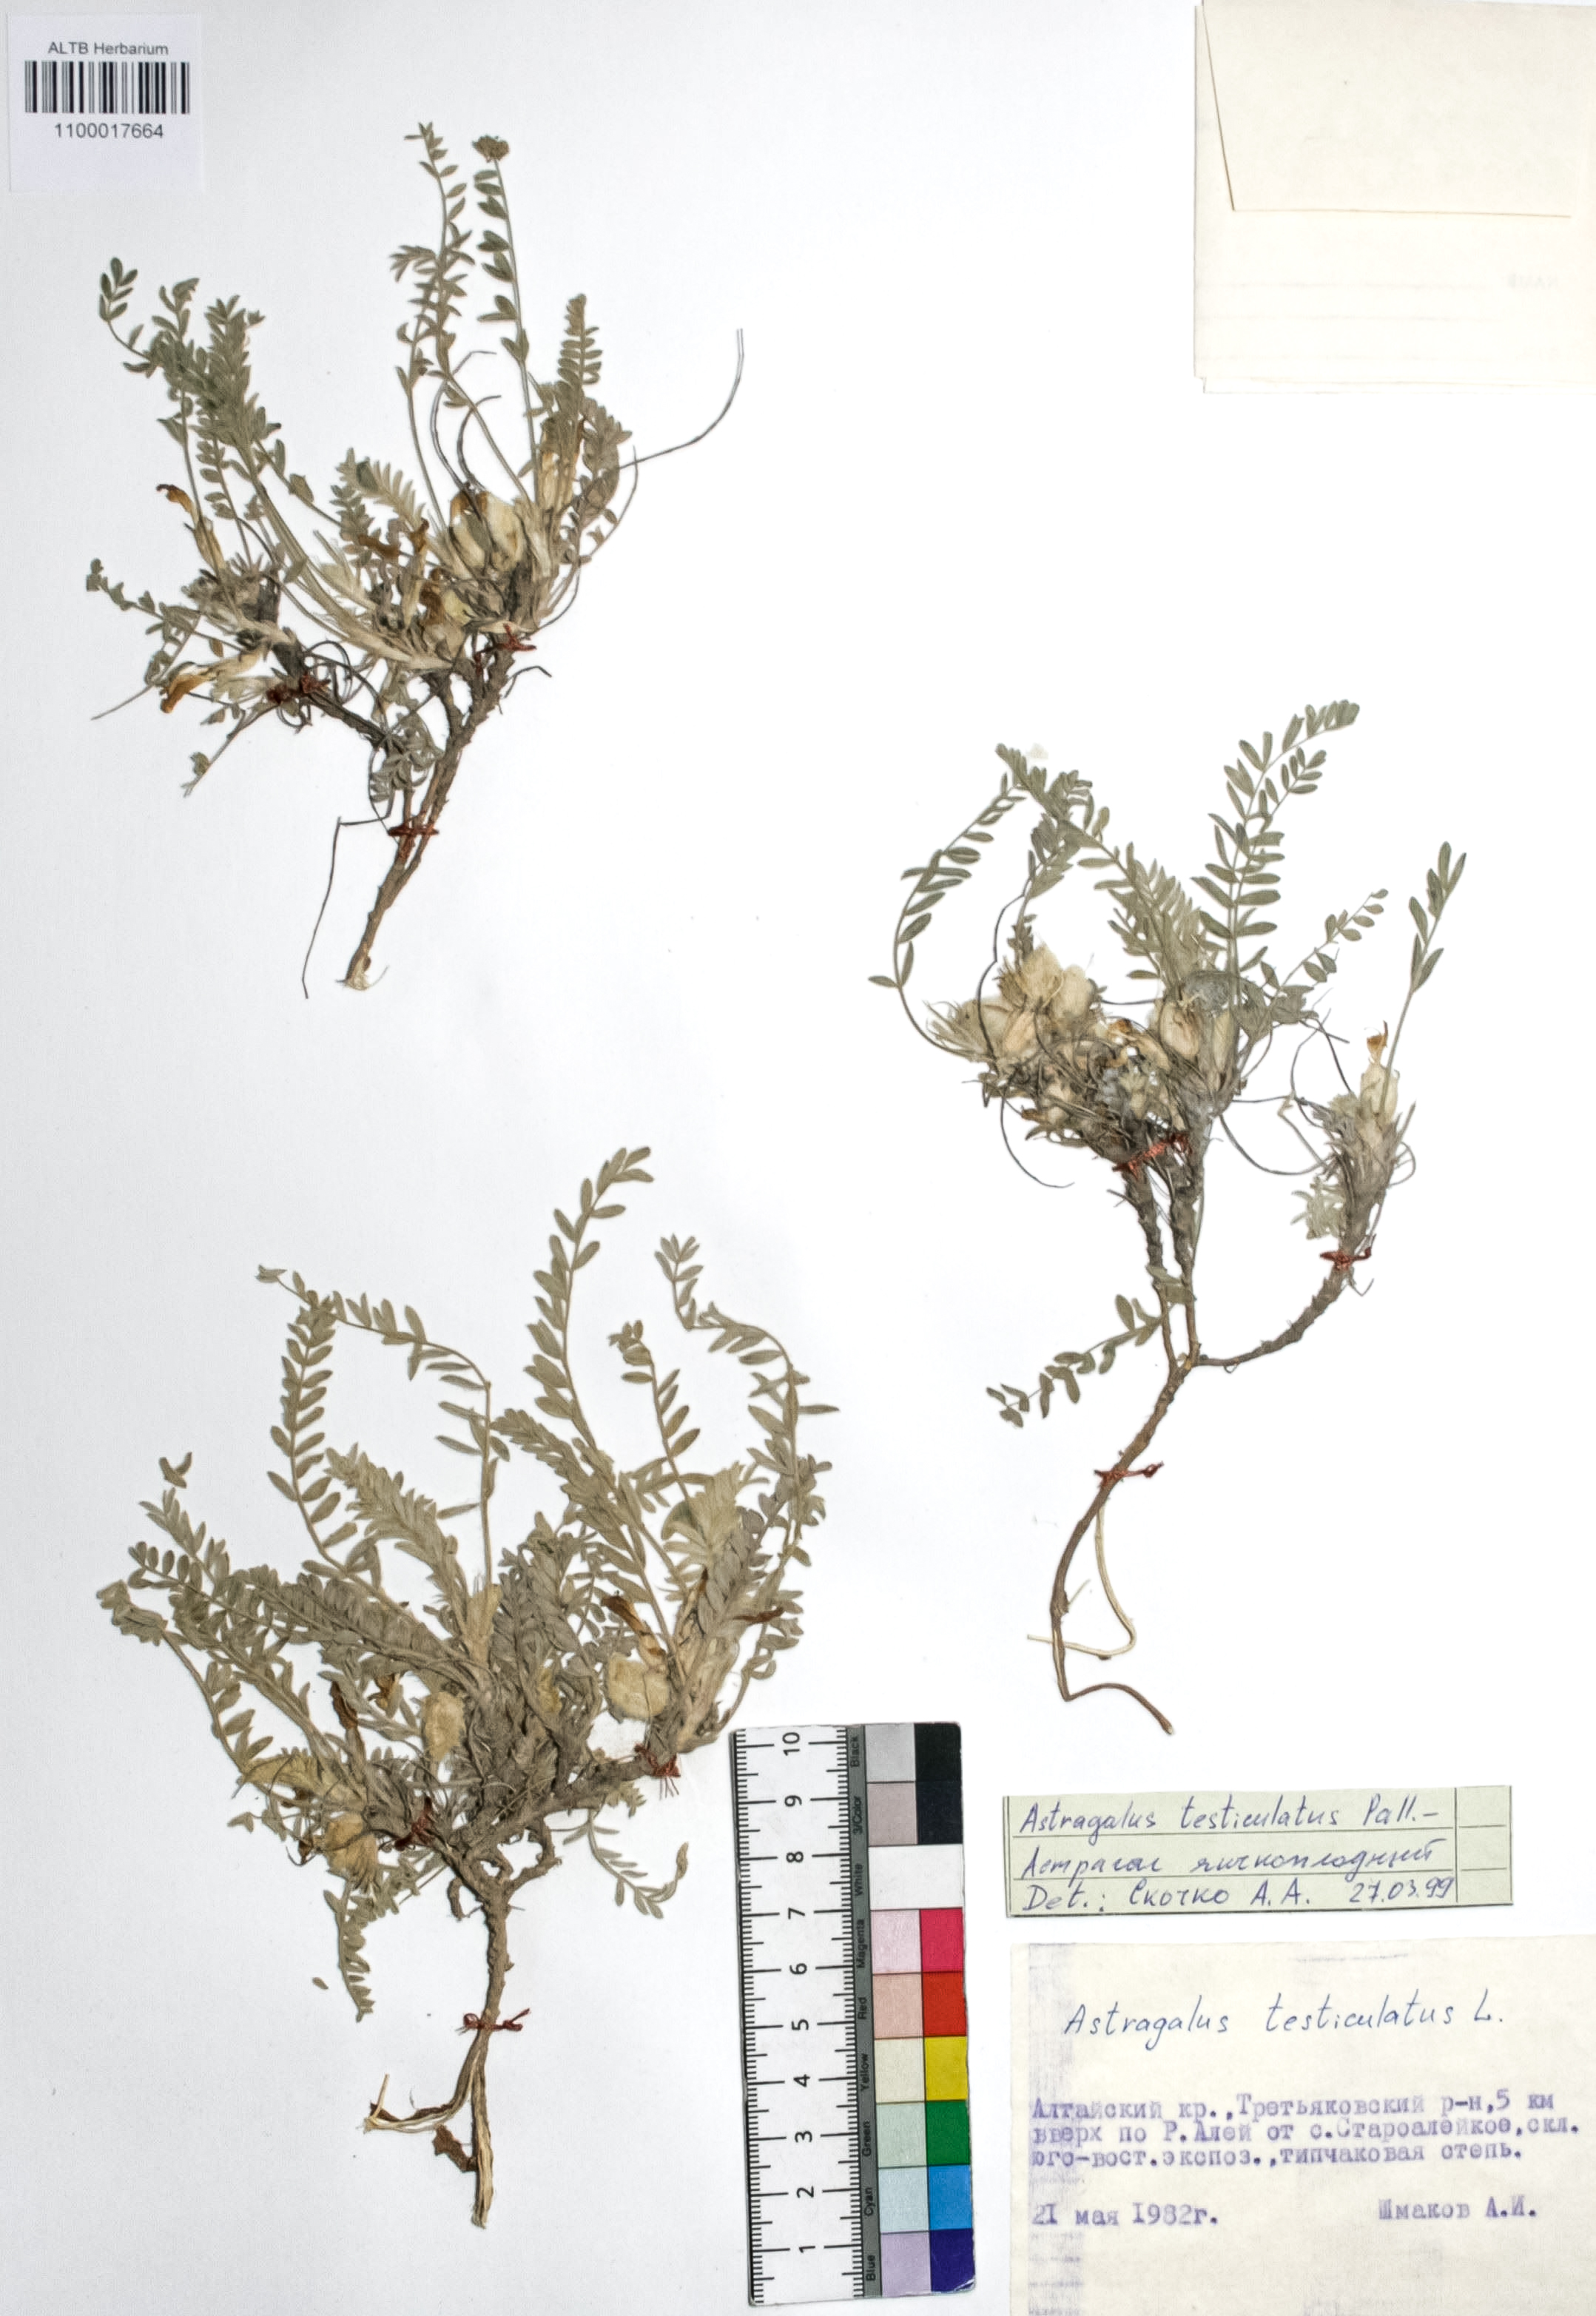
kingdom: Plantae
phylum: Tracheophyta
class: Magnoliopsida
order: Fabales
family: Fabaceae
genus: Astragalus
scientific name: Astragalus testiculatus
